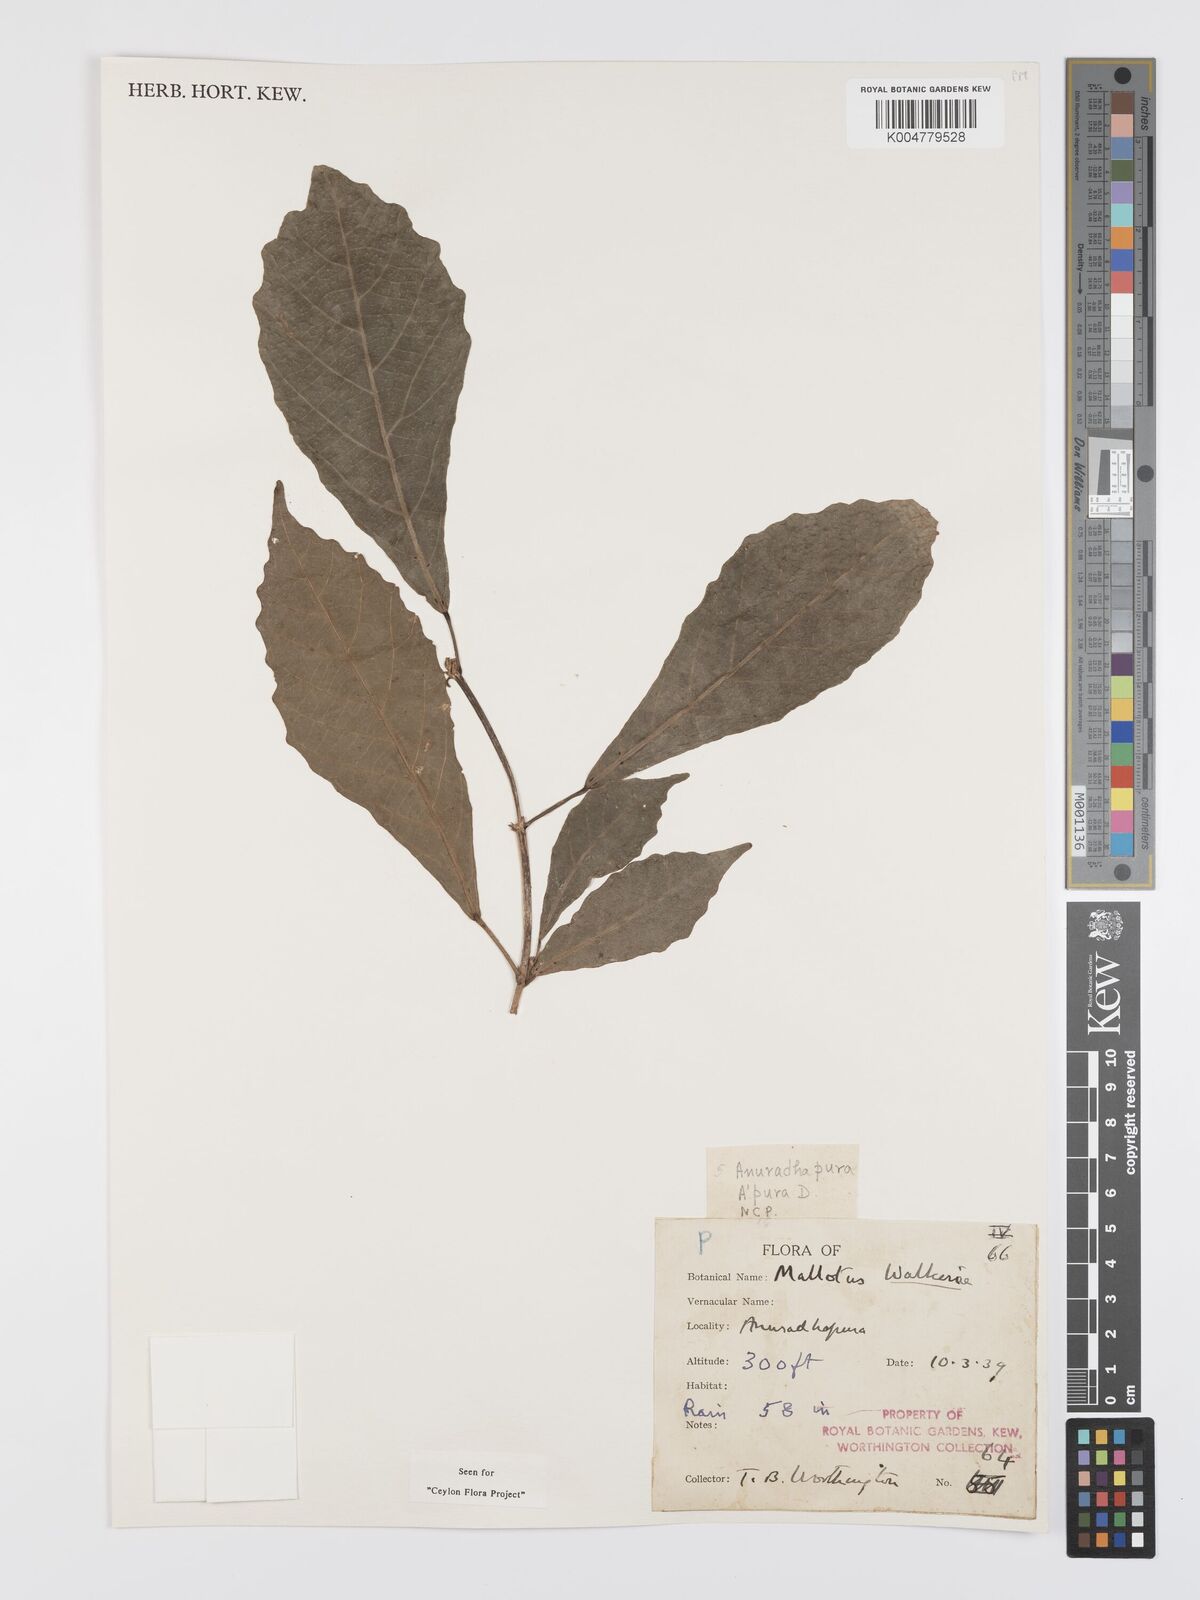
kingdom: Plantae
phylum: Tracheophyta
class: Magnoliopsida
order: Malpighiales
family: Euphorbiaceae
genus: Mallotus
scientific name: Mallotus resinosus
